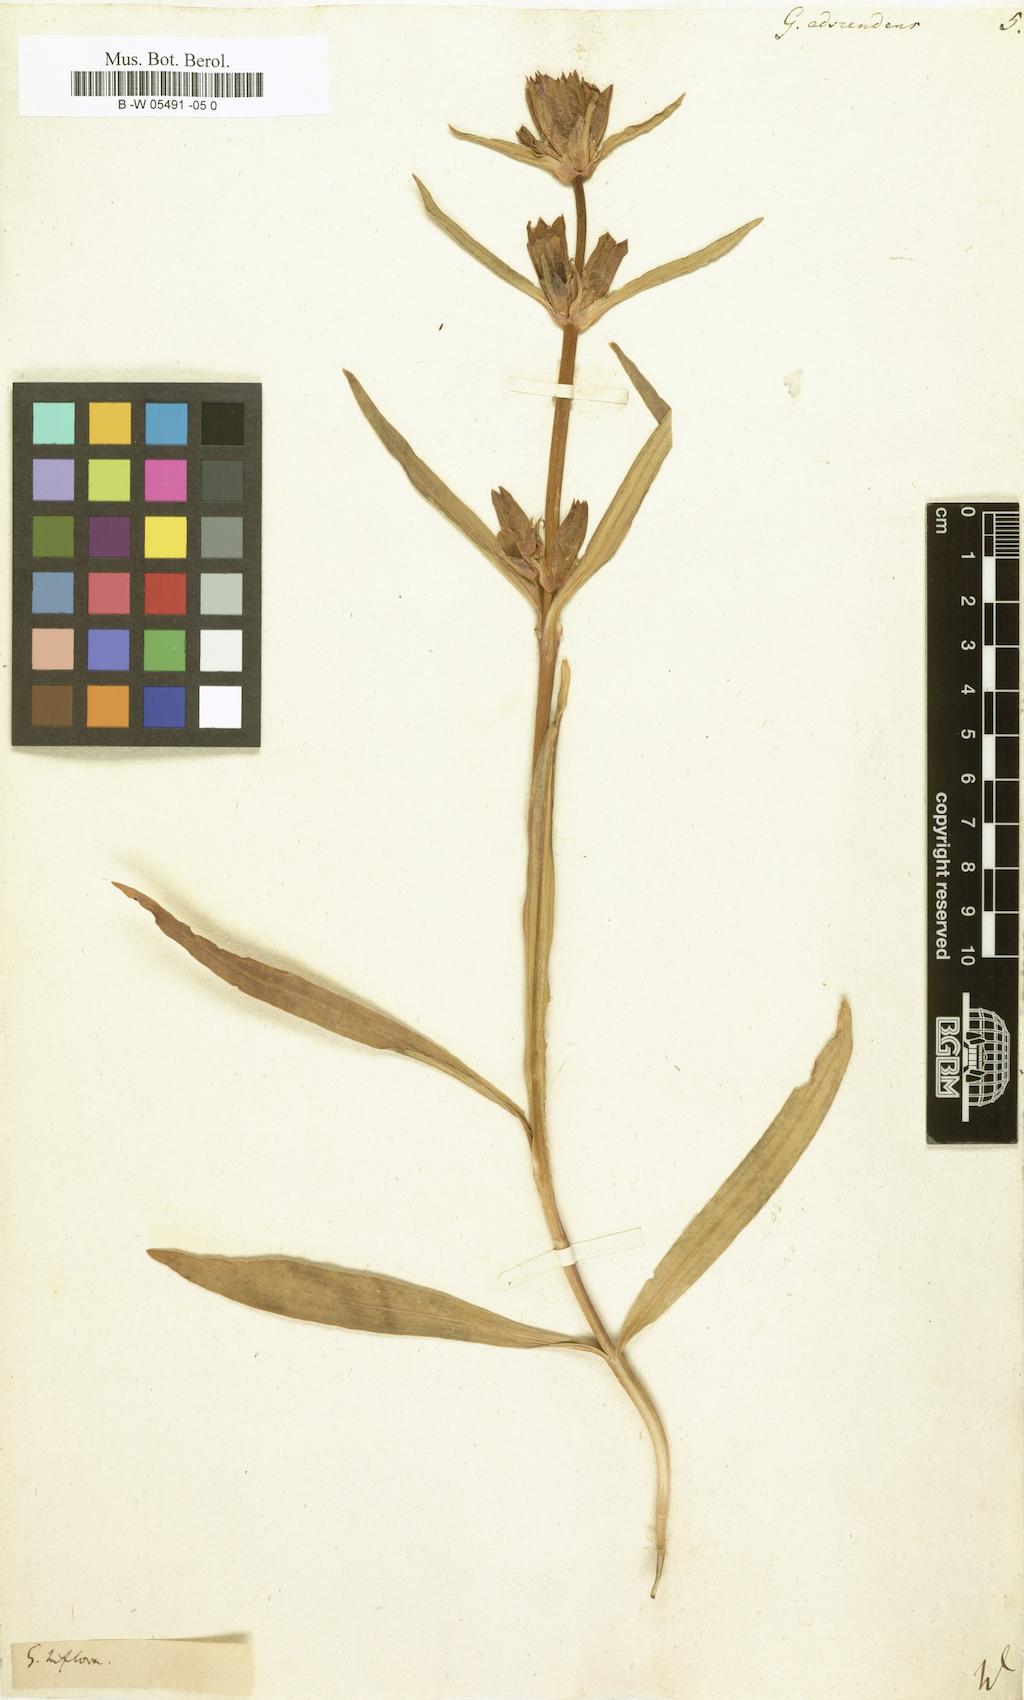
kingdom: Plantae
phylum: Tracheophyta
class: Magnoliopsida
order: Gentianales
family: Gentianaceae
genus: Gentiana
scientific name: Gentiana decumbens
